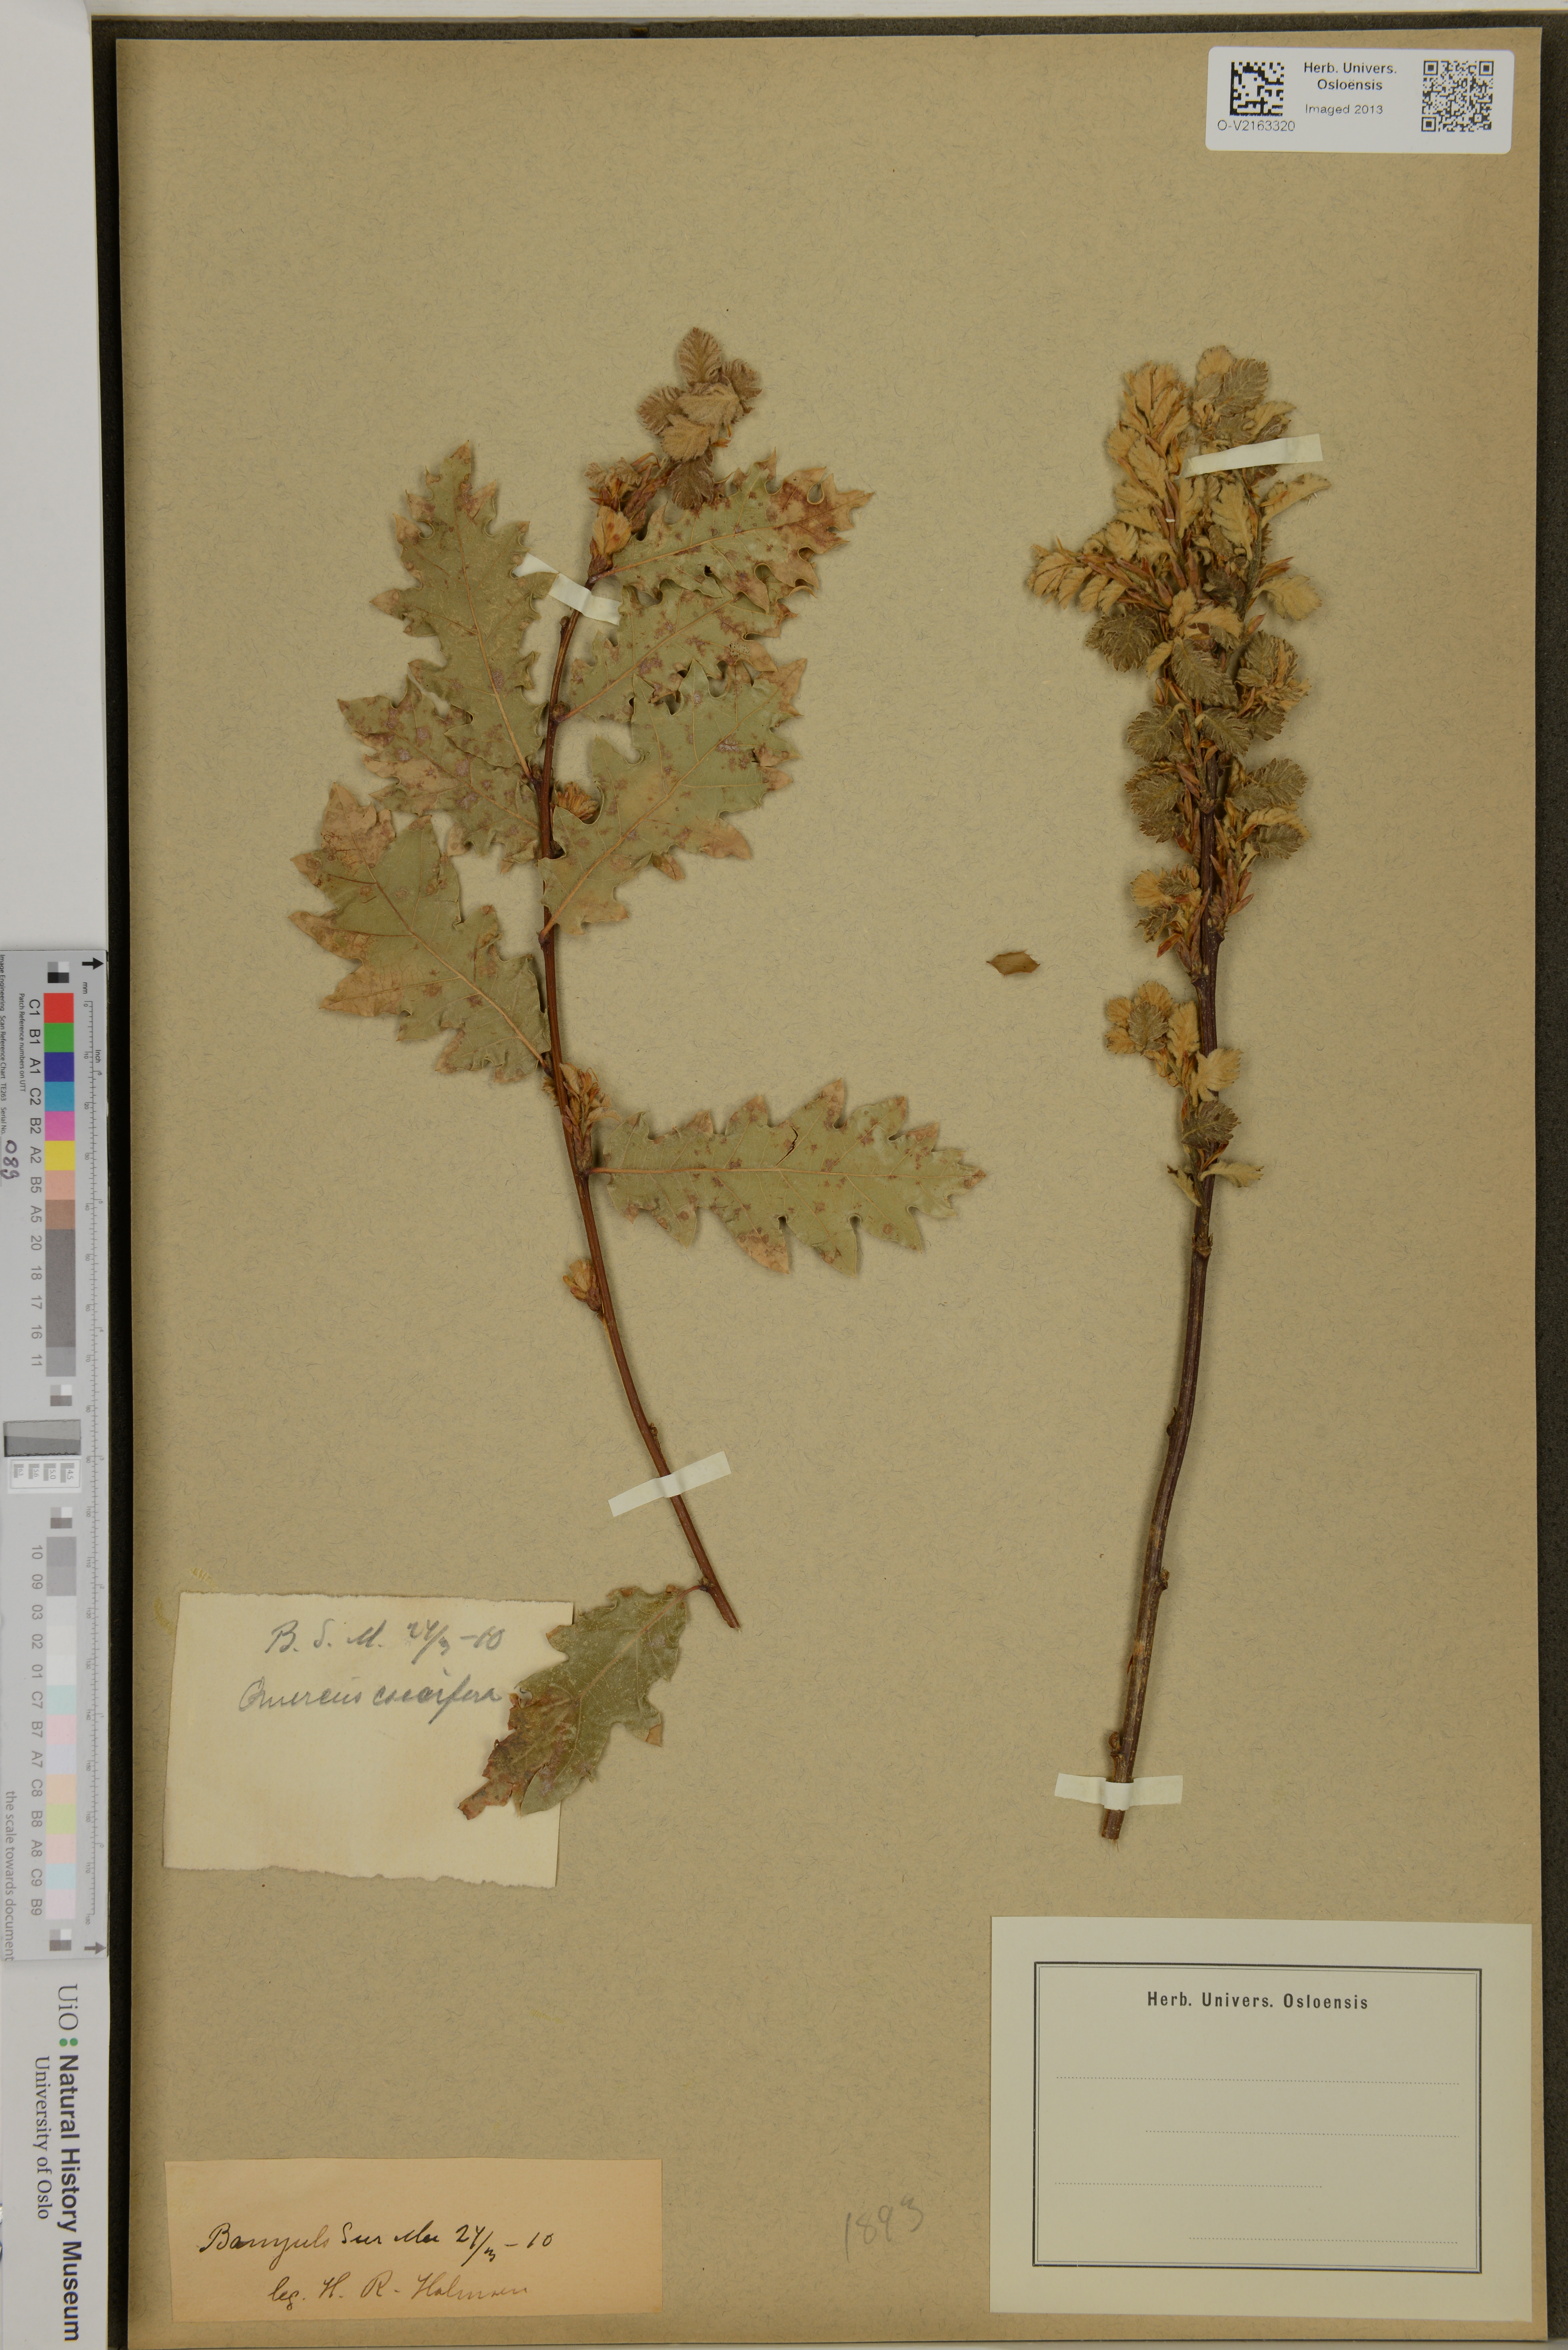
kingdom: Plantae
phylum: Tracheophyta
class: Magnoliopsida
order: Fagales
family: Fagaceae
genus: Quercus
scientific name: Quercus coccifera
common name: Kermes oak
